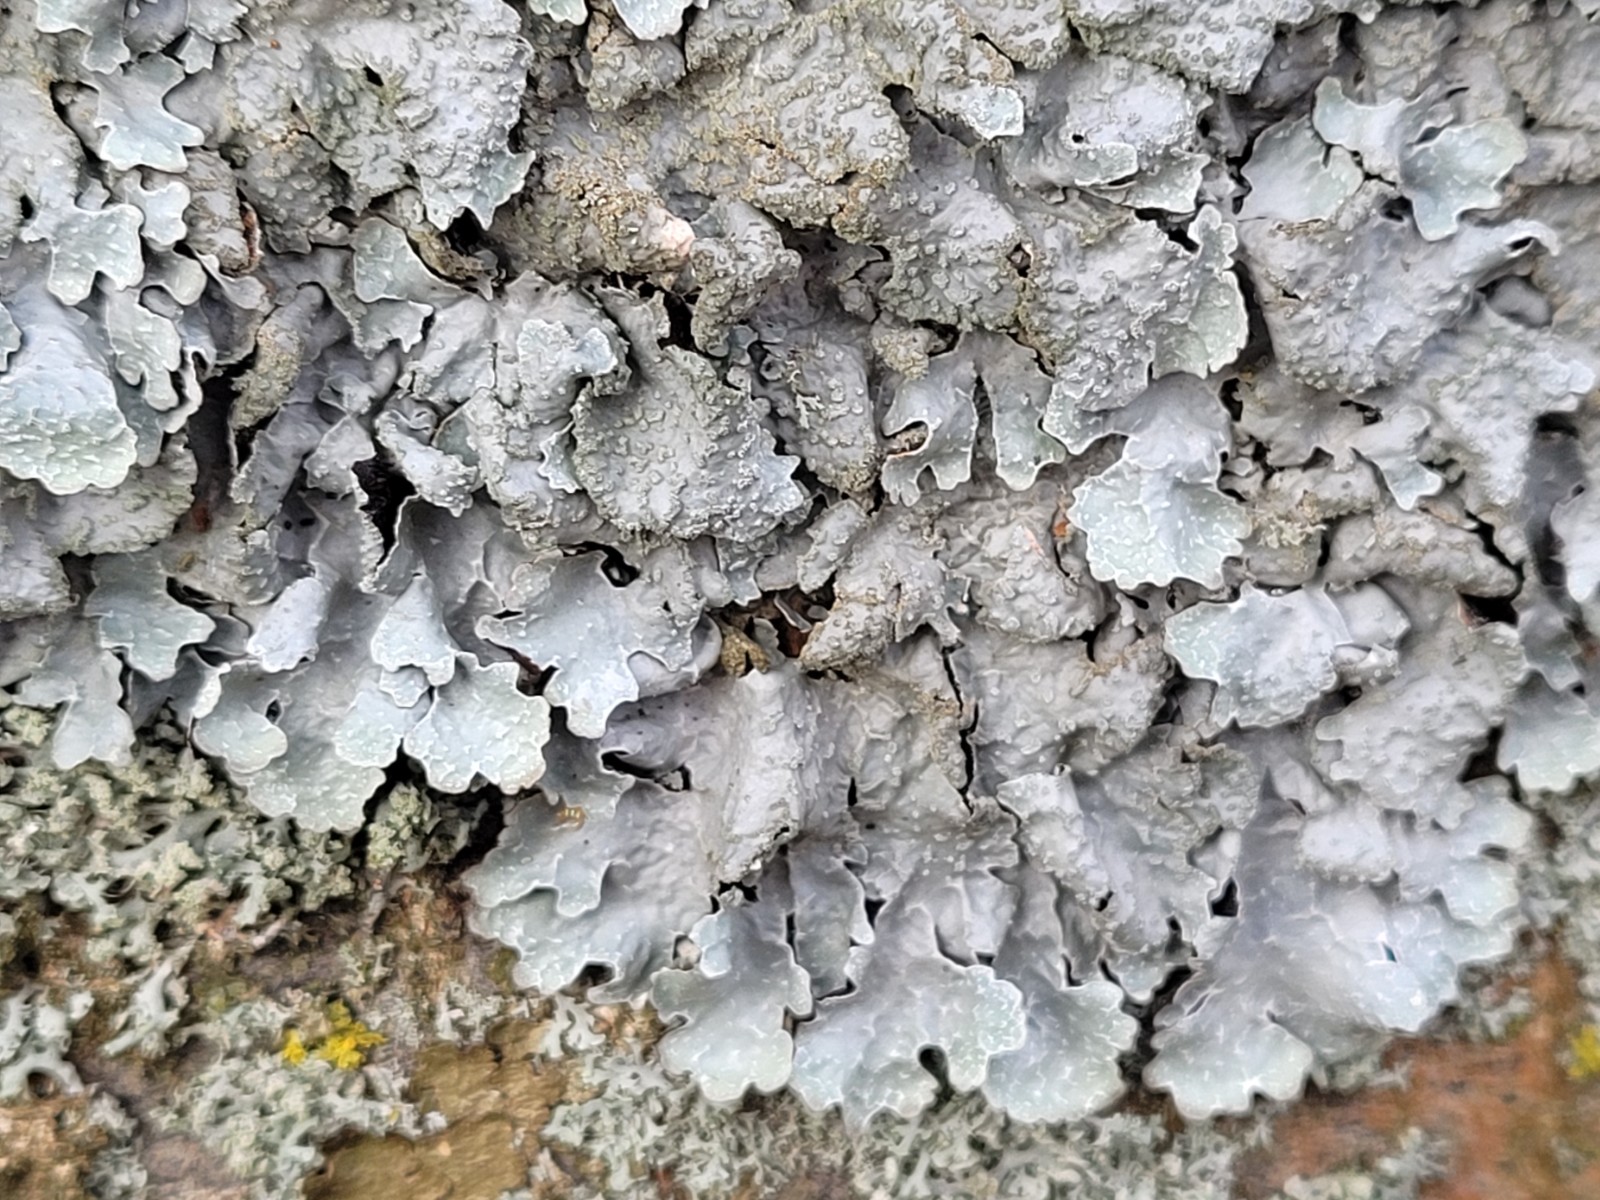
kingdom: Fungi
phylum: Ascomycota
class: Lecanoromycetes
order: Lecanorales
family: Parmeliaceae
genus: Parmelia
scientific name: Parmelia sulcata
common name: rynket skållav
